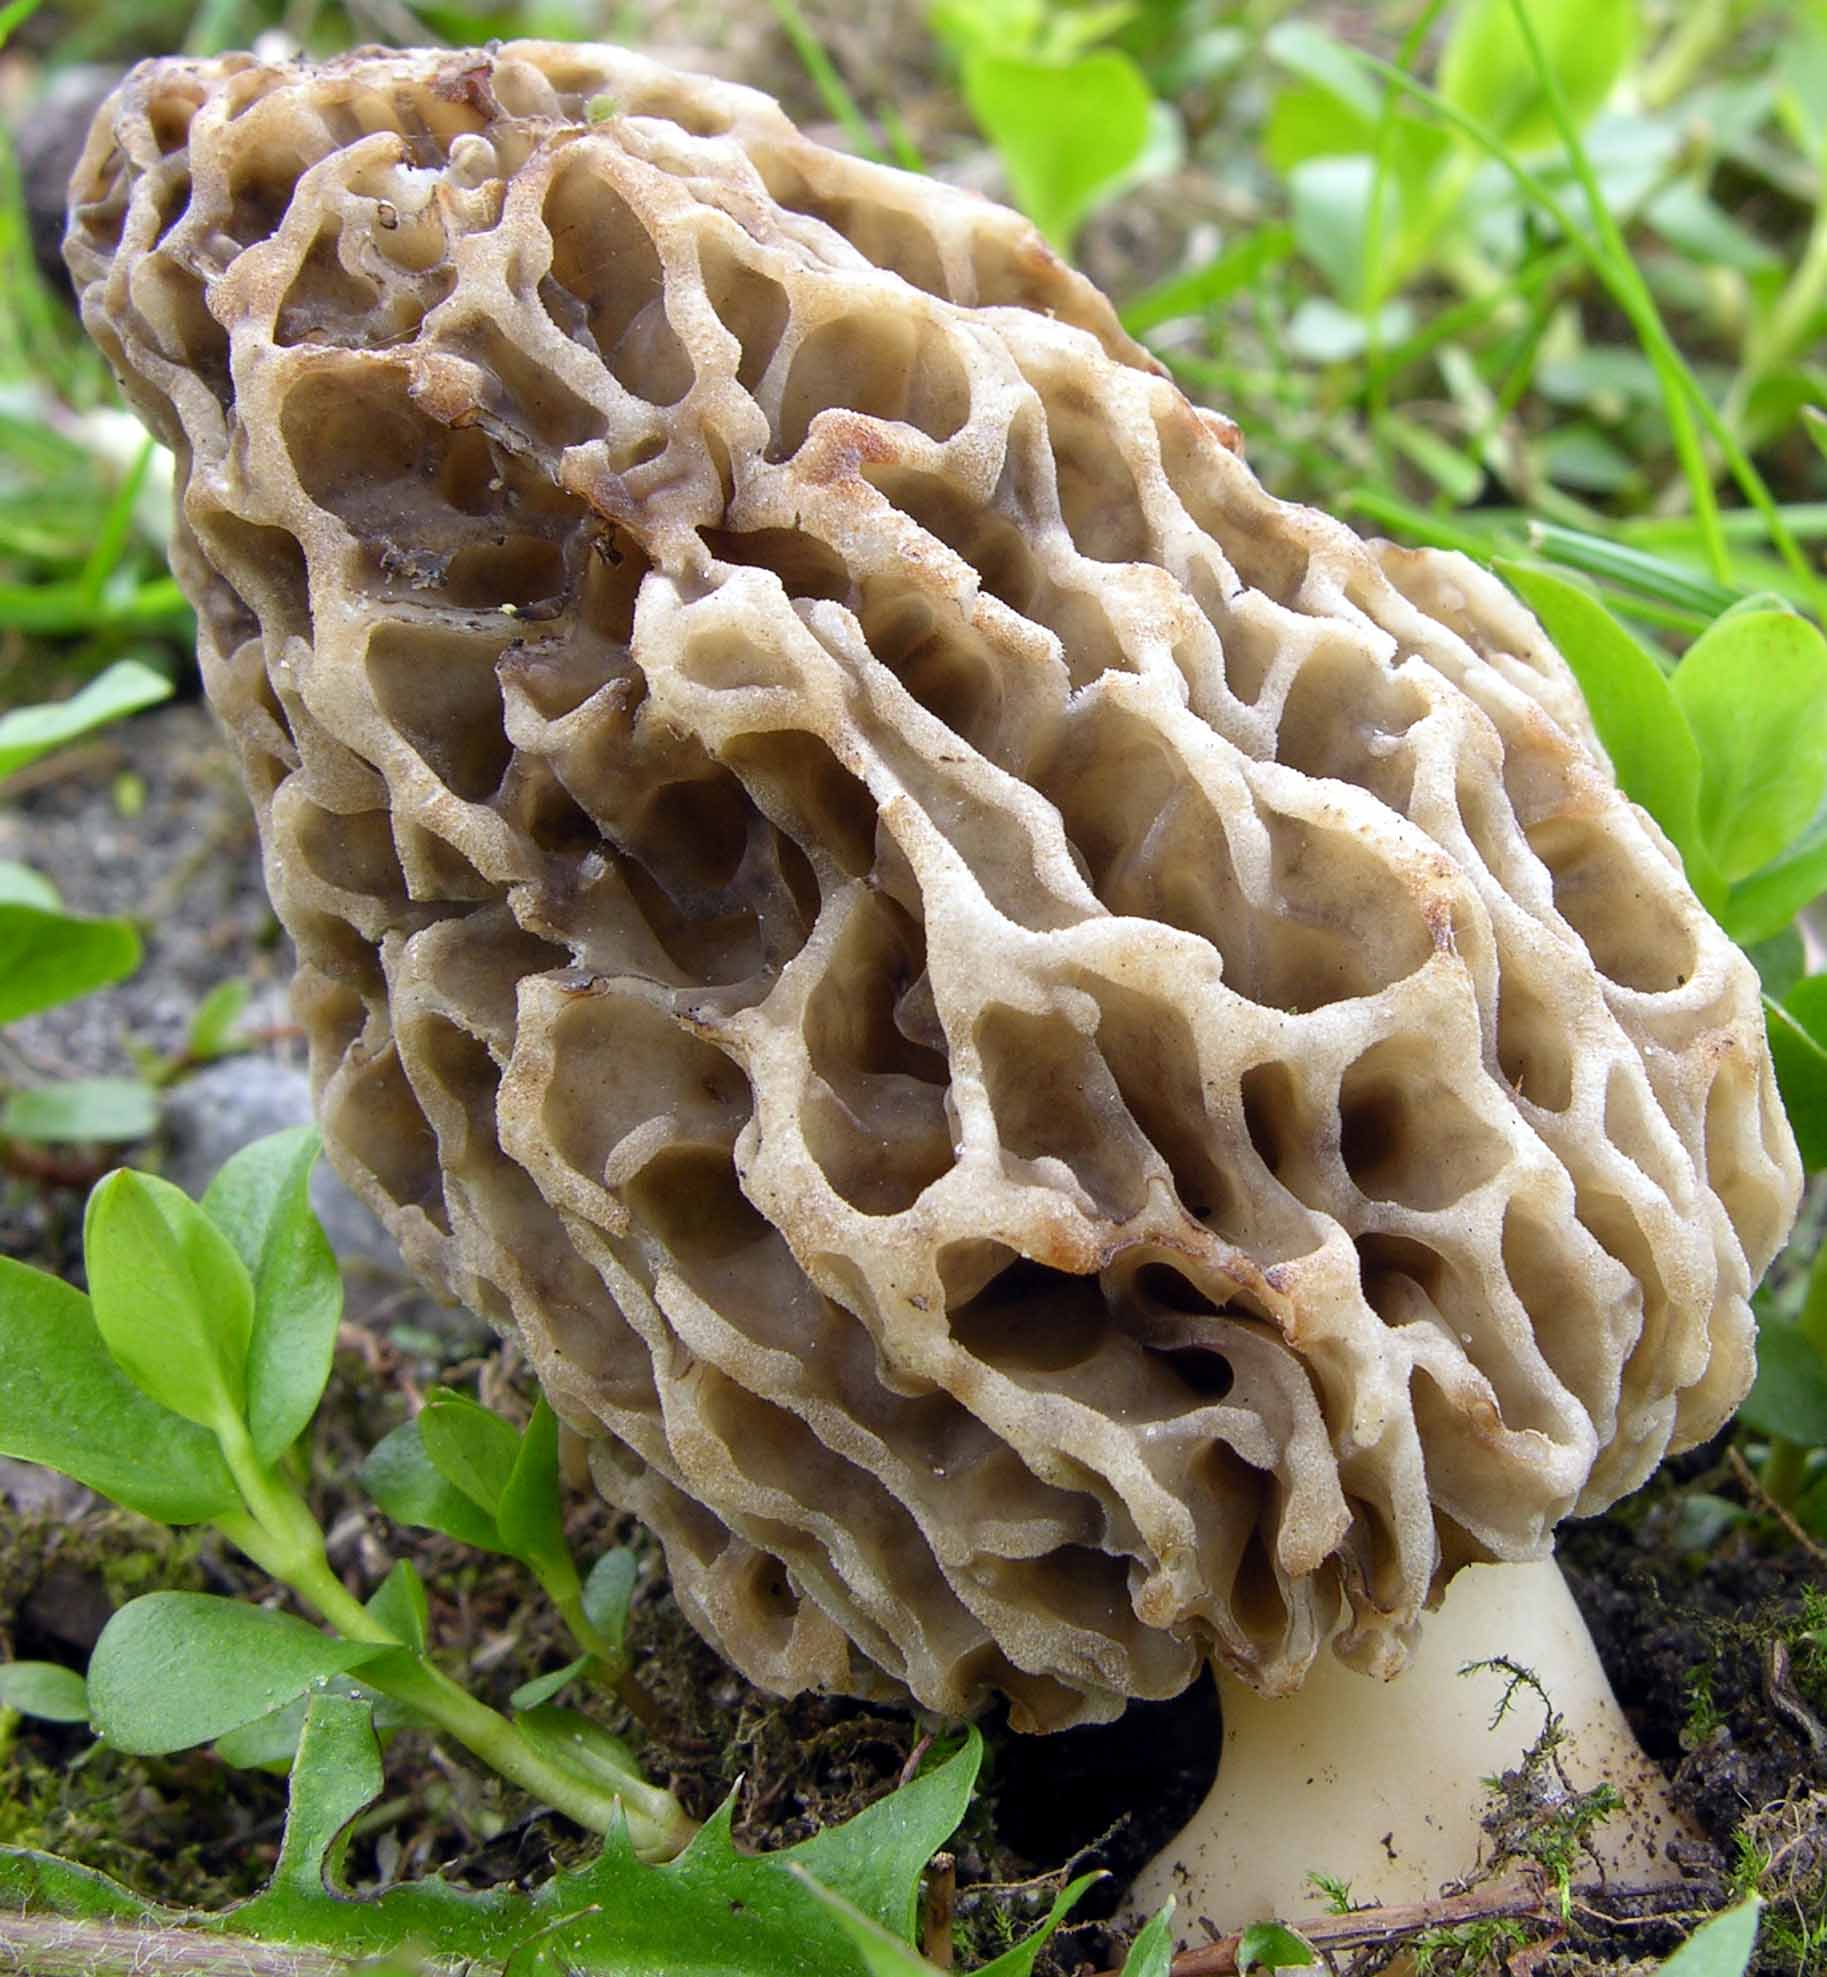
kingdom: Fungi
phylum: Ascomycota
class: Pezizomycetes
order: Pezizales
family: Morchellaceae
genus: Morchella
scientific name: Morchella esculenta
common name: almindelig morkel
